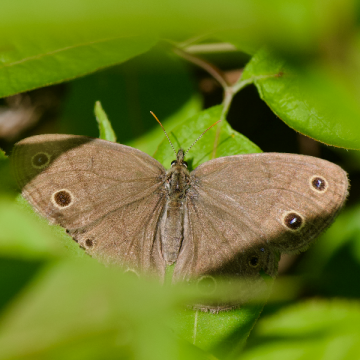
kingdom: Animalia
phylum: Arthropoda
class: Insecta
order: Lepidoptera
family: Nymphalidae
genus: Euptychia
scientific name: Euptychia cymela
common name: Little Wood Satyr
